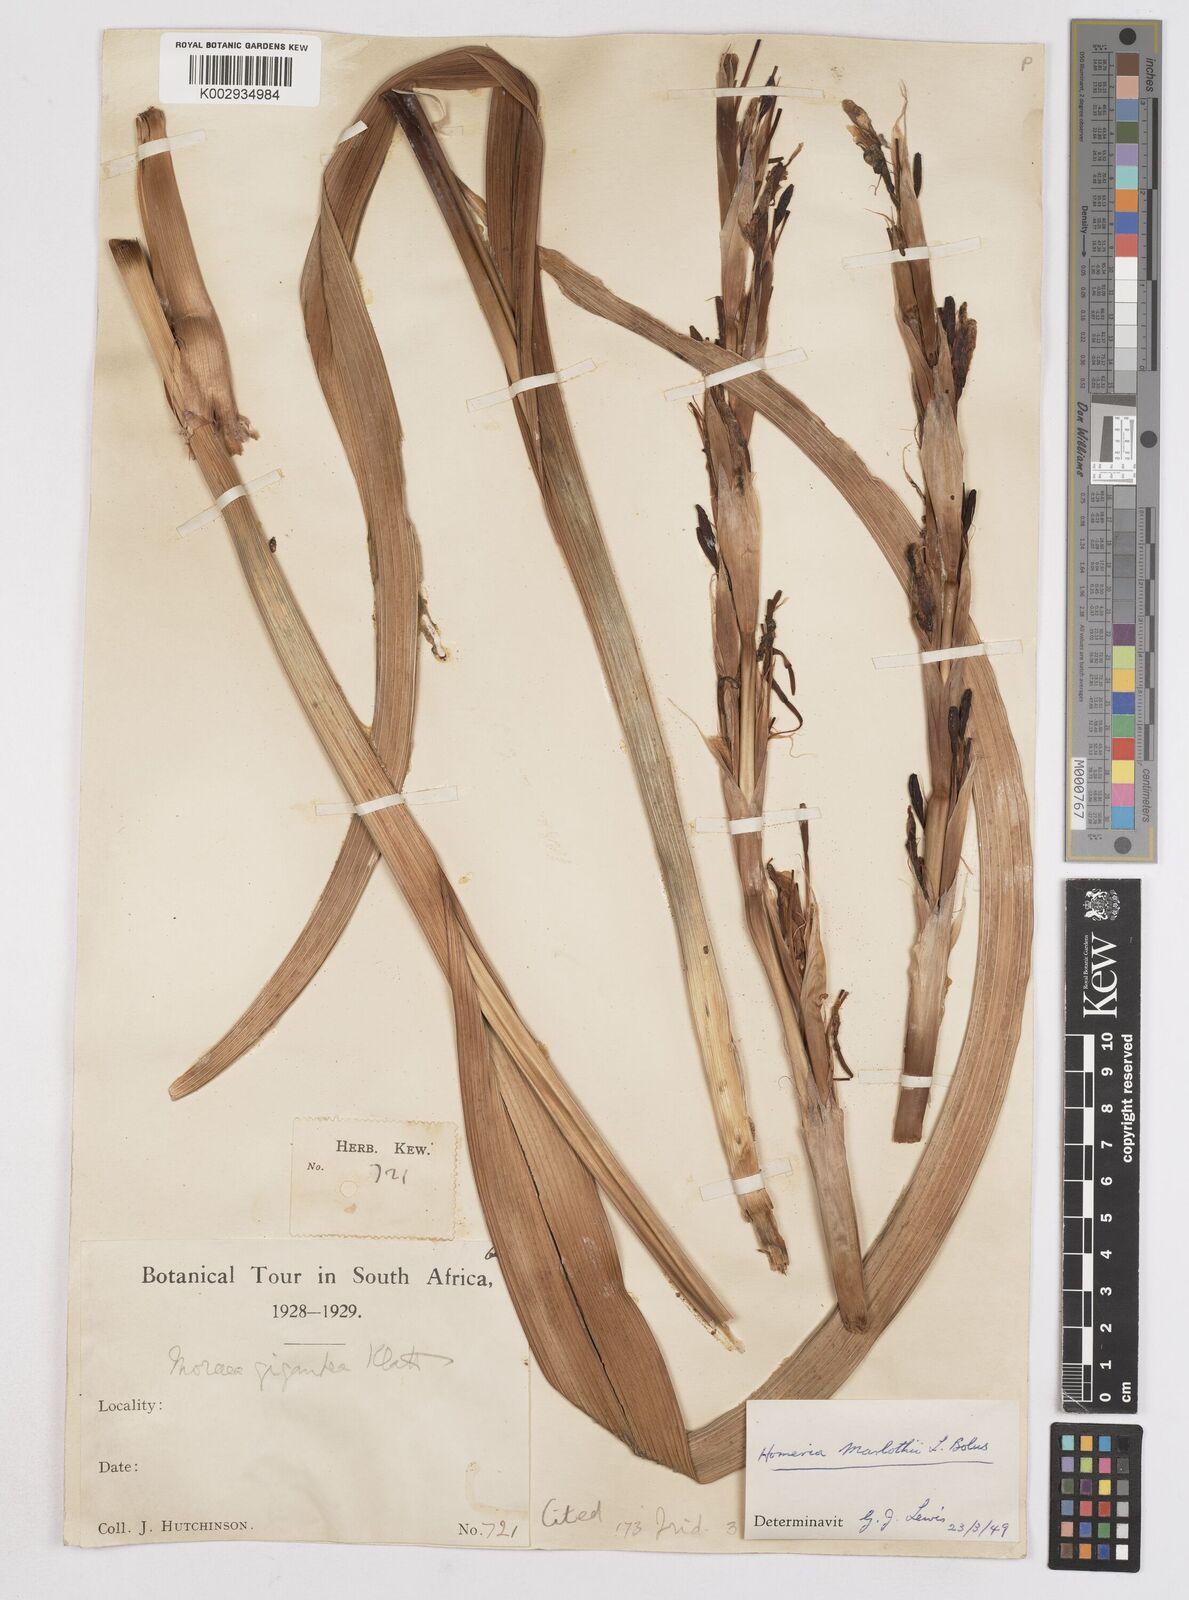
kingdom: Plantae
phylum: Tracheophyta
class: Liliopsida
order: Asparagales
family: Iridaceae
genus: Moraea
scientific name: Moraea marlothii
